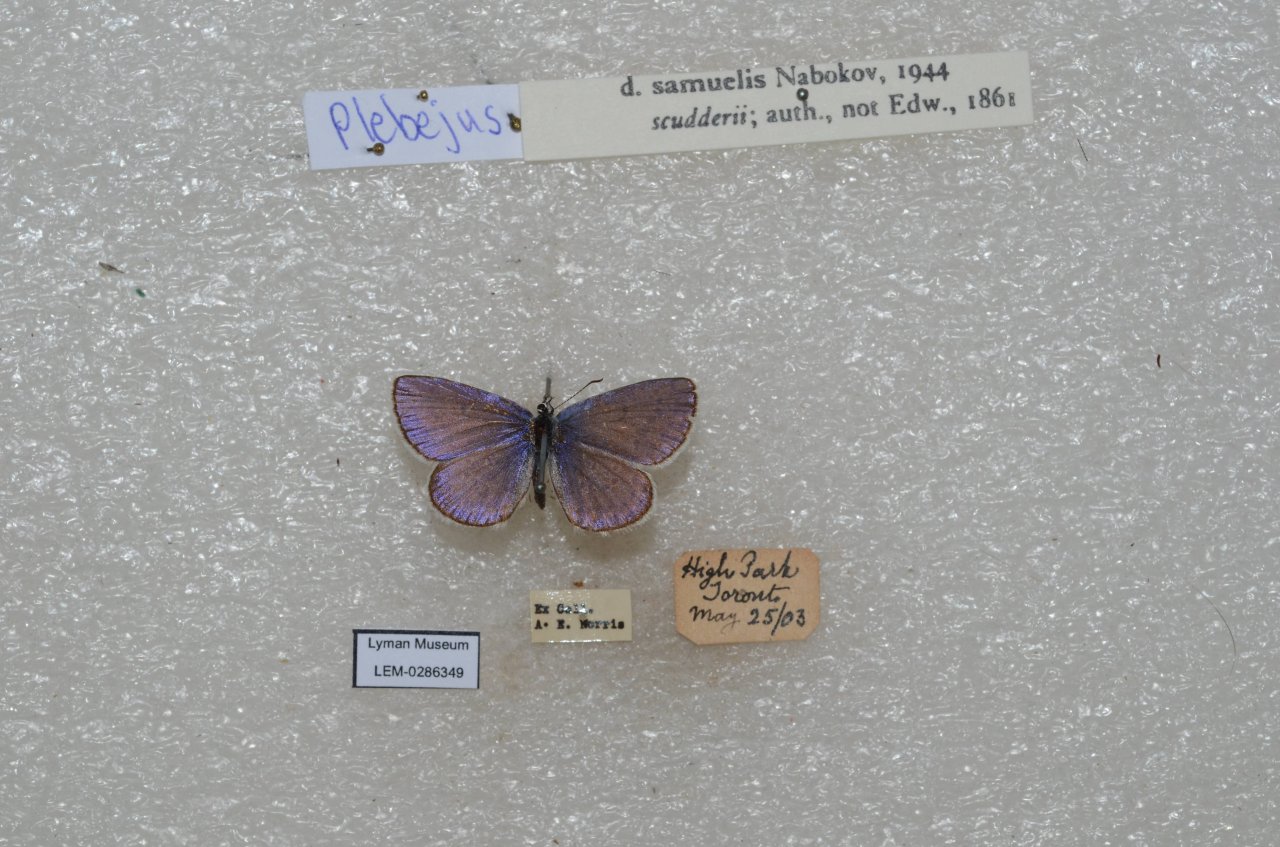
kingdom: Animalia
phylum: Arthropoda
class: Insecta
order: Lepidoptera
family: Lycaenidae
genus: Plebejus
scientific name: Plebejus samuelis
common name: Karner Blue
